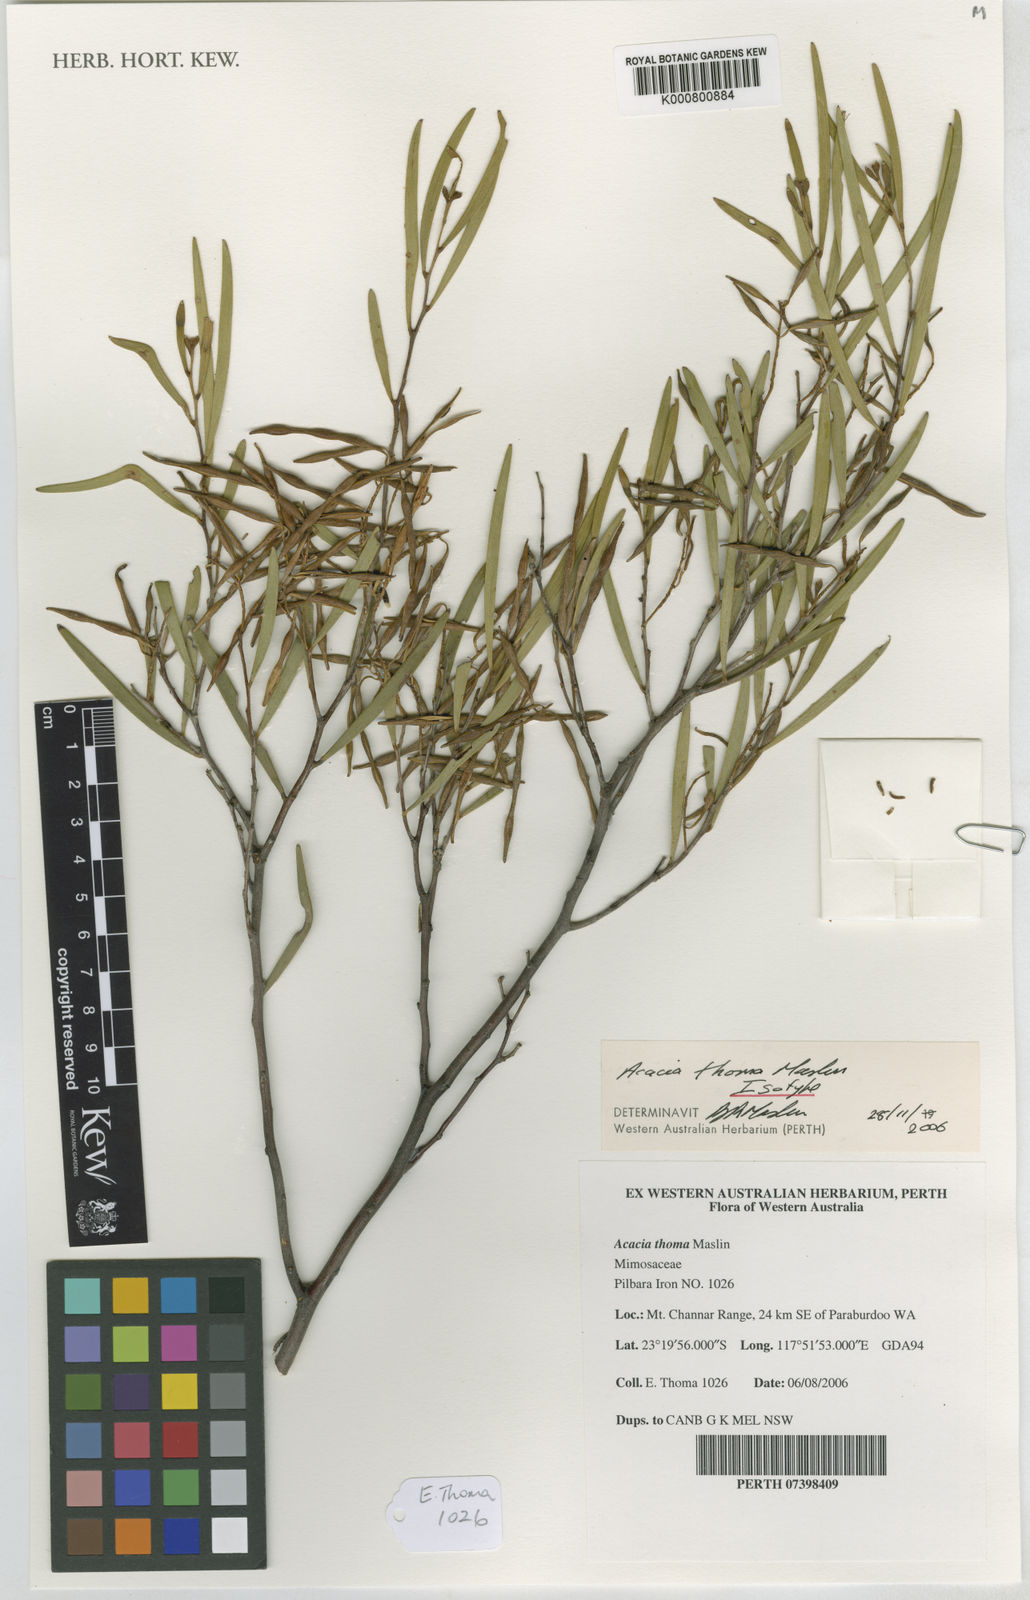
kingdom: Plantae
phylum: Tracheophyta
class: Magnoliopsida
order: Fabales
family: Fabaceae
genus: Acacia
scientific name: Acacia thoma
